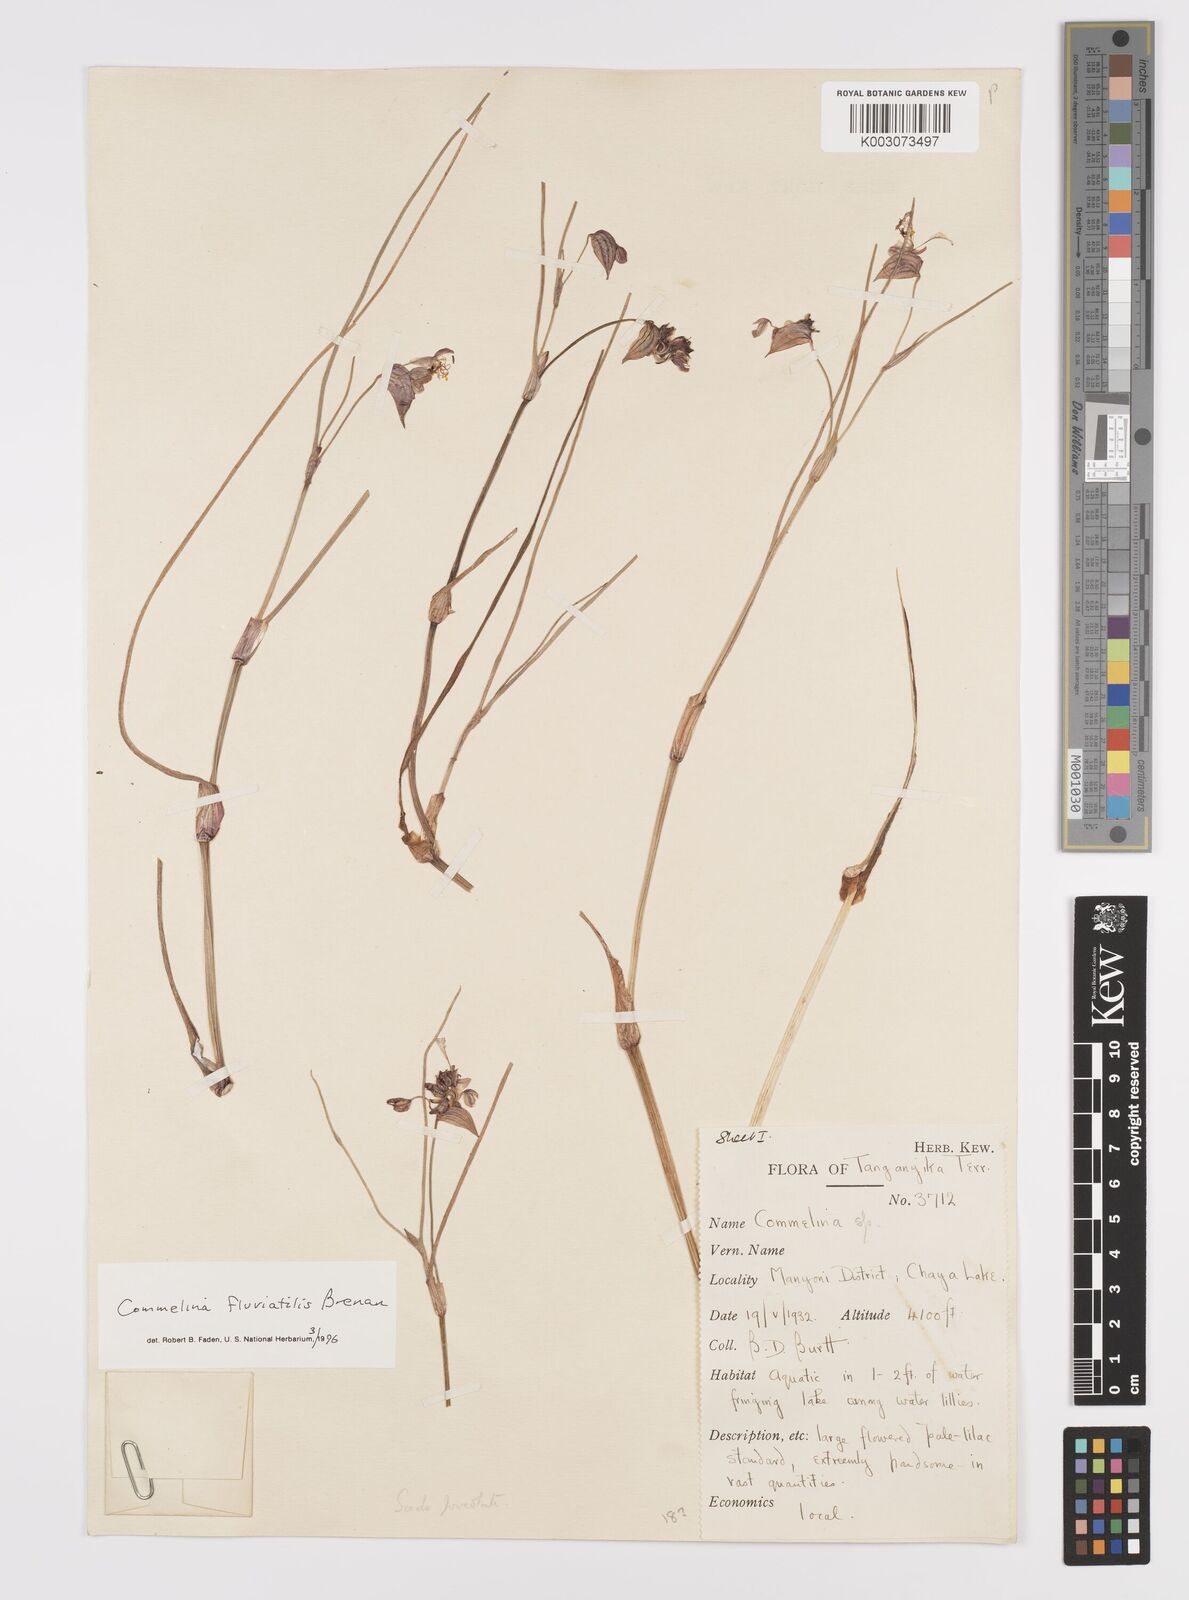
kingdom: Plantae
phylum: Tracheophyta
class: Liliopsida
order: Commelinales
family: Commelinaceae
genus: Commelina
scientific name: Commelina fluviatilis
